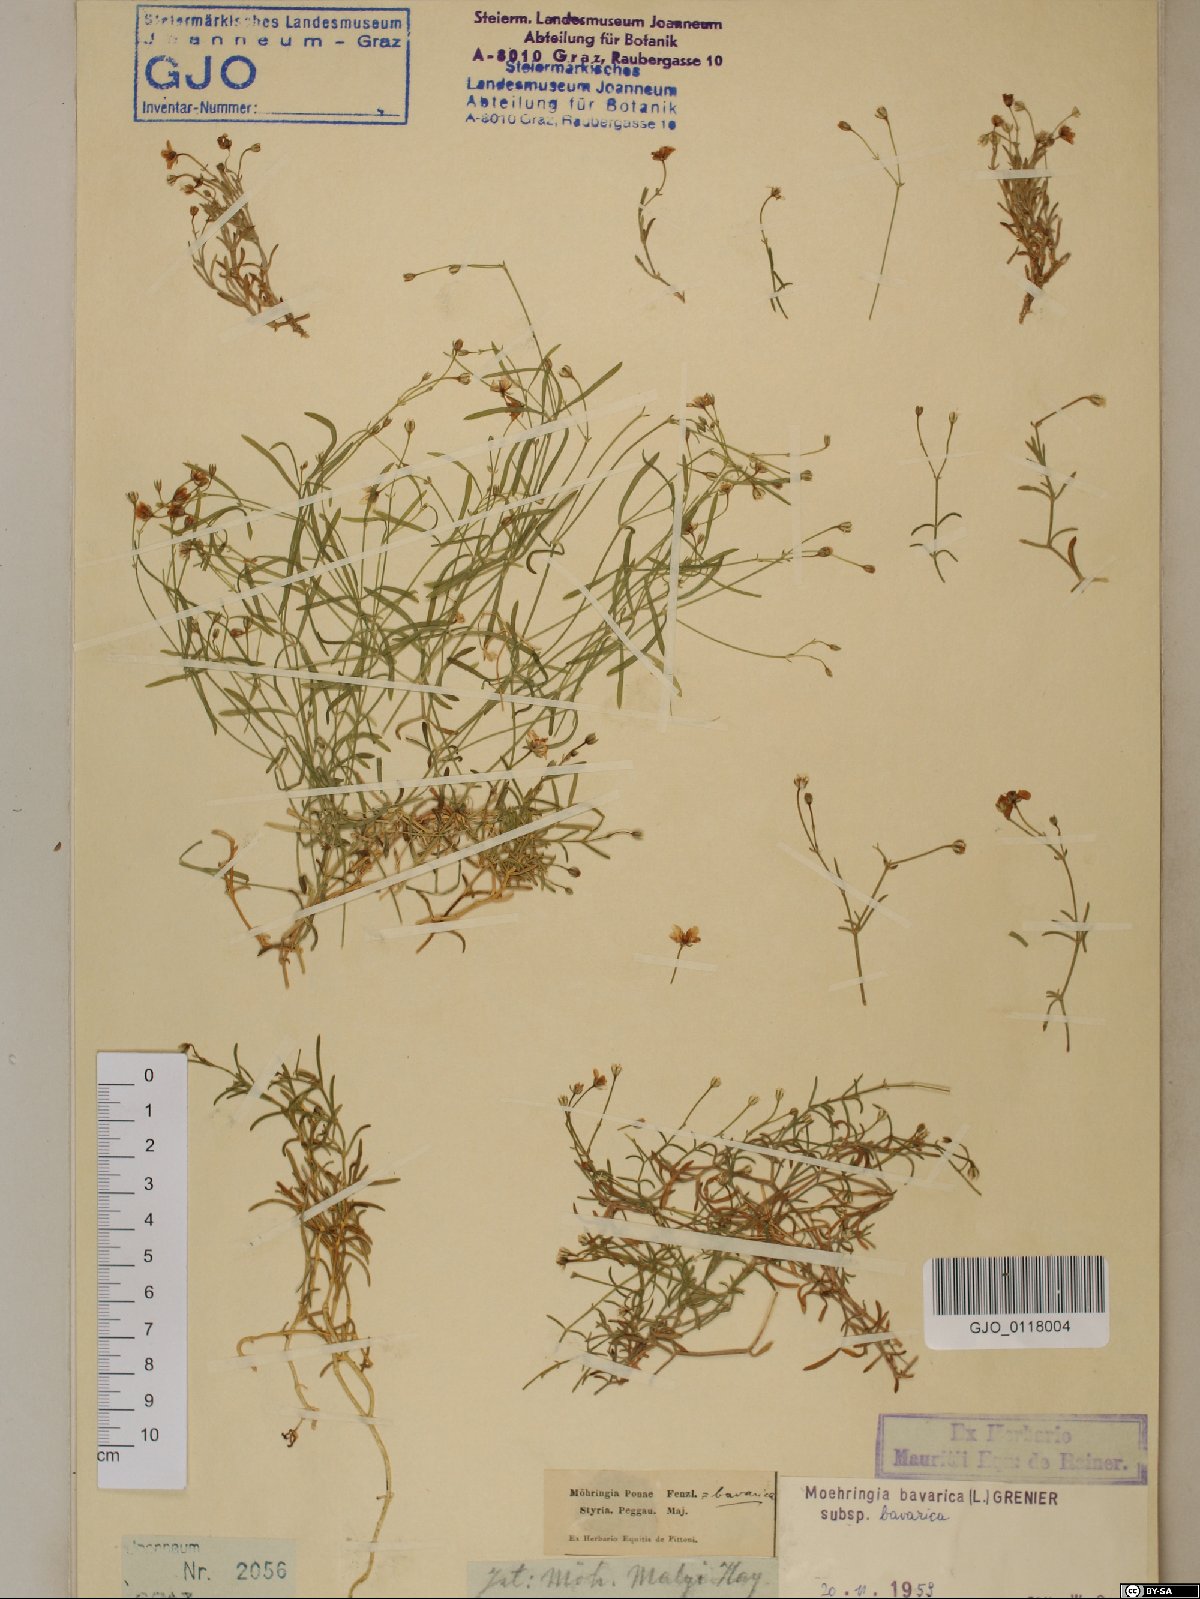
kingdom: Plantae
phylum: Tracheophyta
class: Magnoliopsida
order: Caryophyllales
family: Caryophyllaceae
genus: Moehringia
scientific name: Moehringia bavarica
